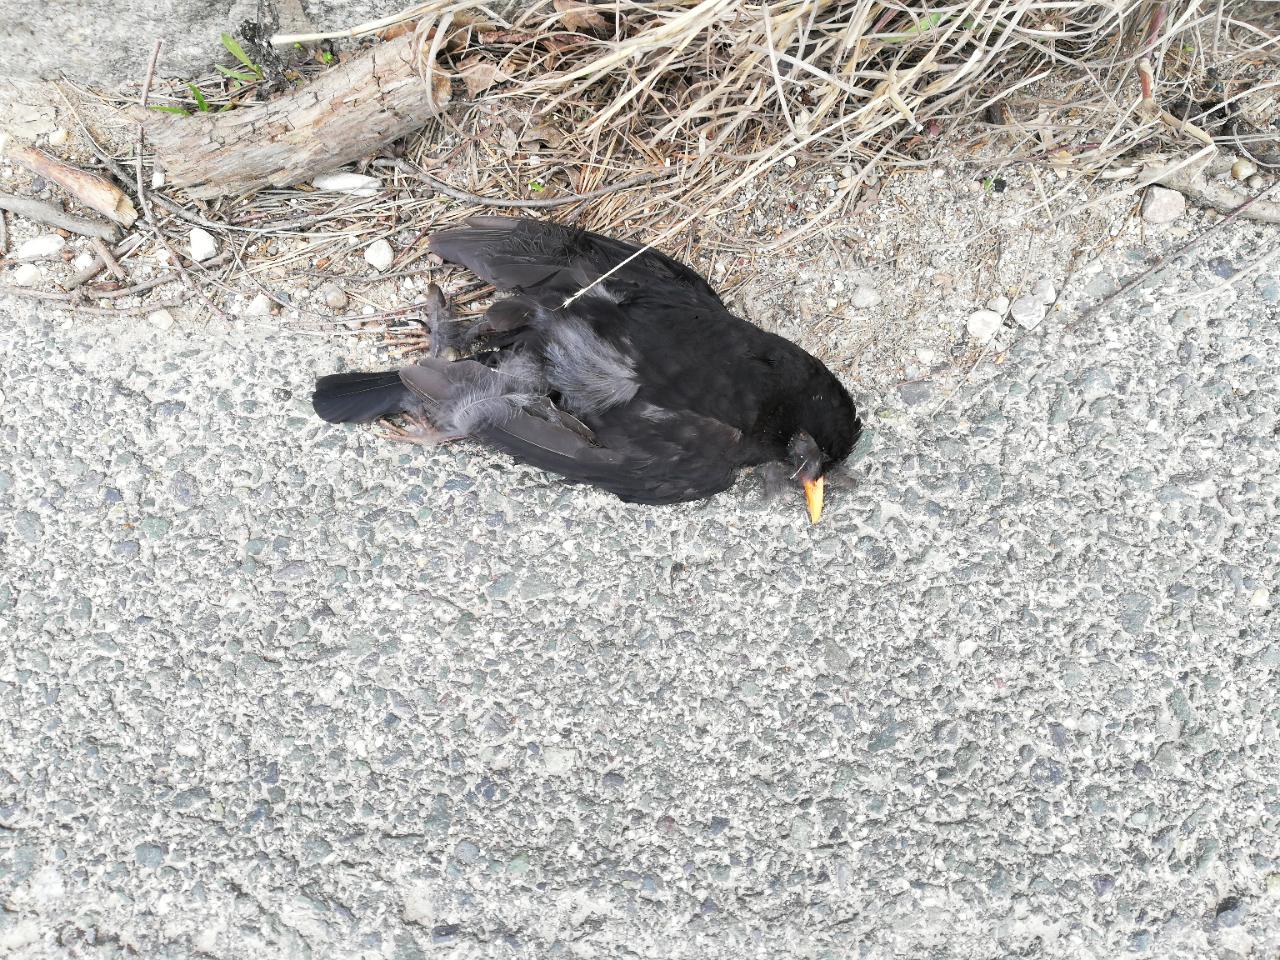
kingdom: Animalia
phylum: Chordata
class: Aves
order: Passeriformes
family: Turdidae
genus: Turdus
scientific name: Turdus merula
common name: Common blackbird
